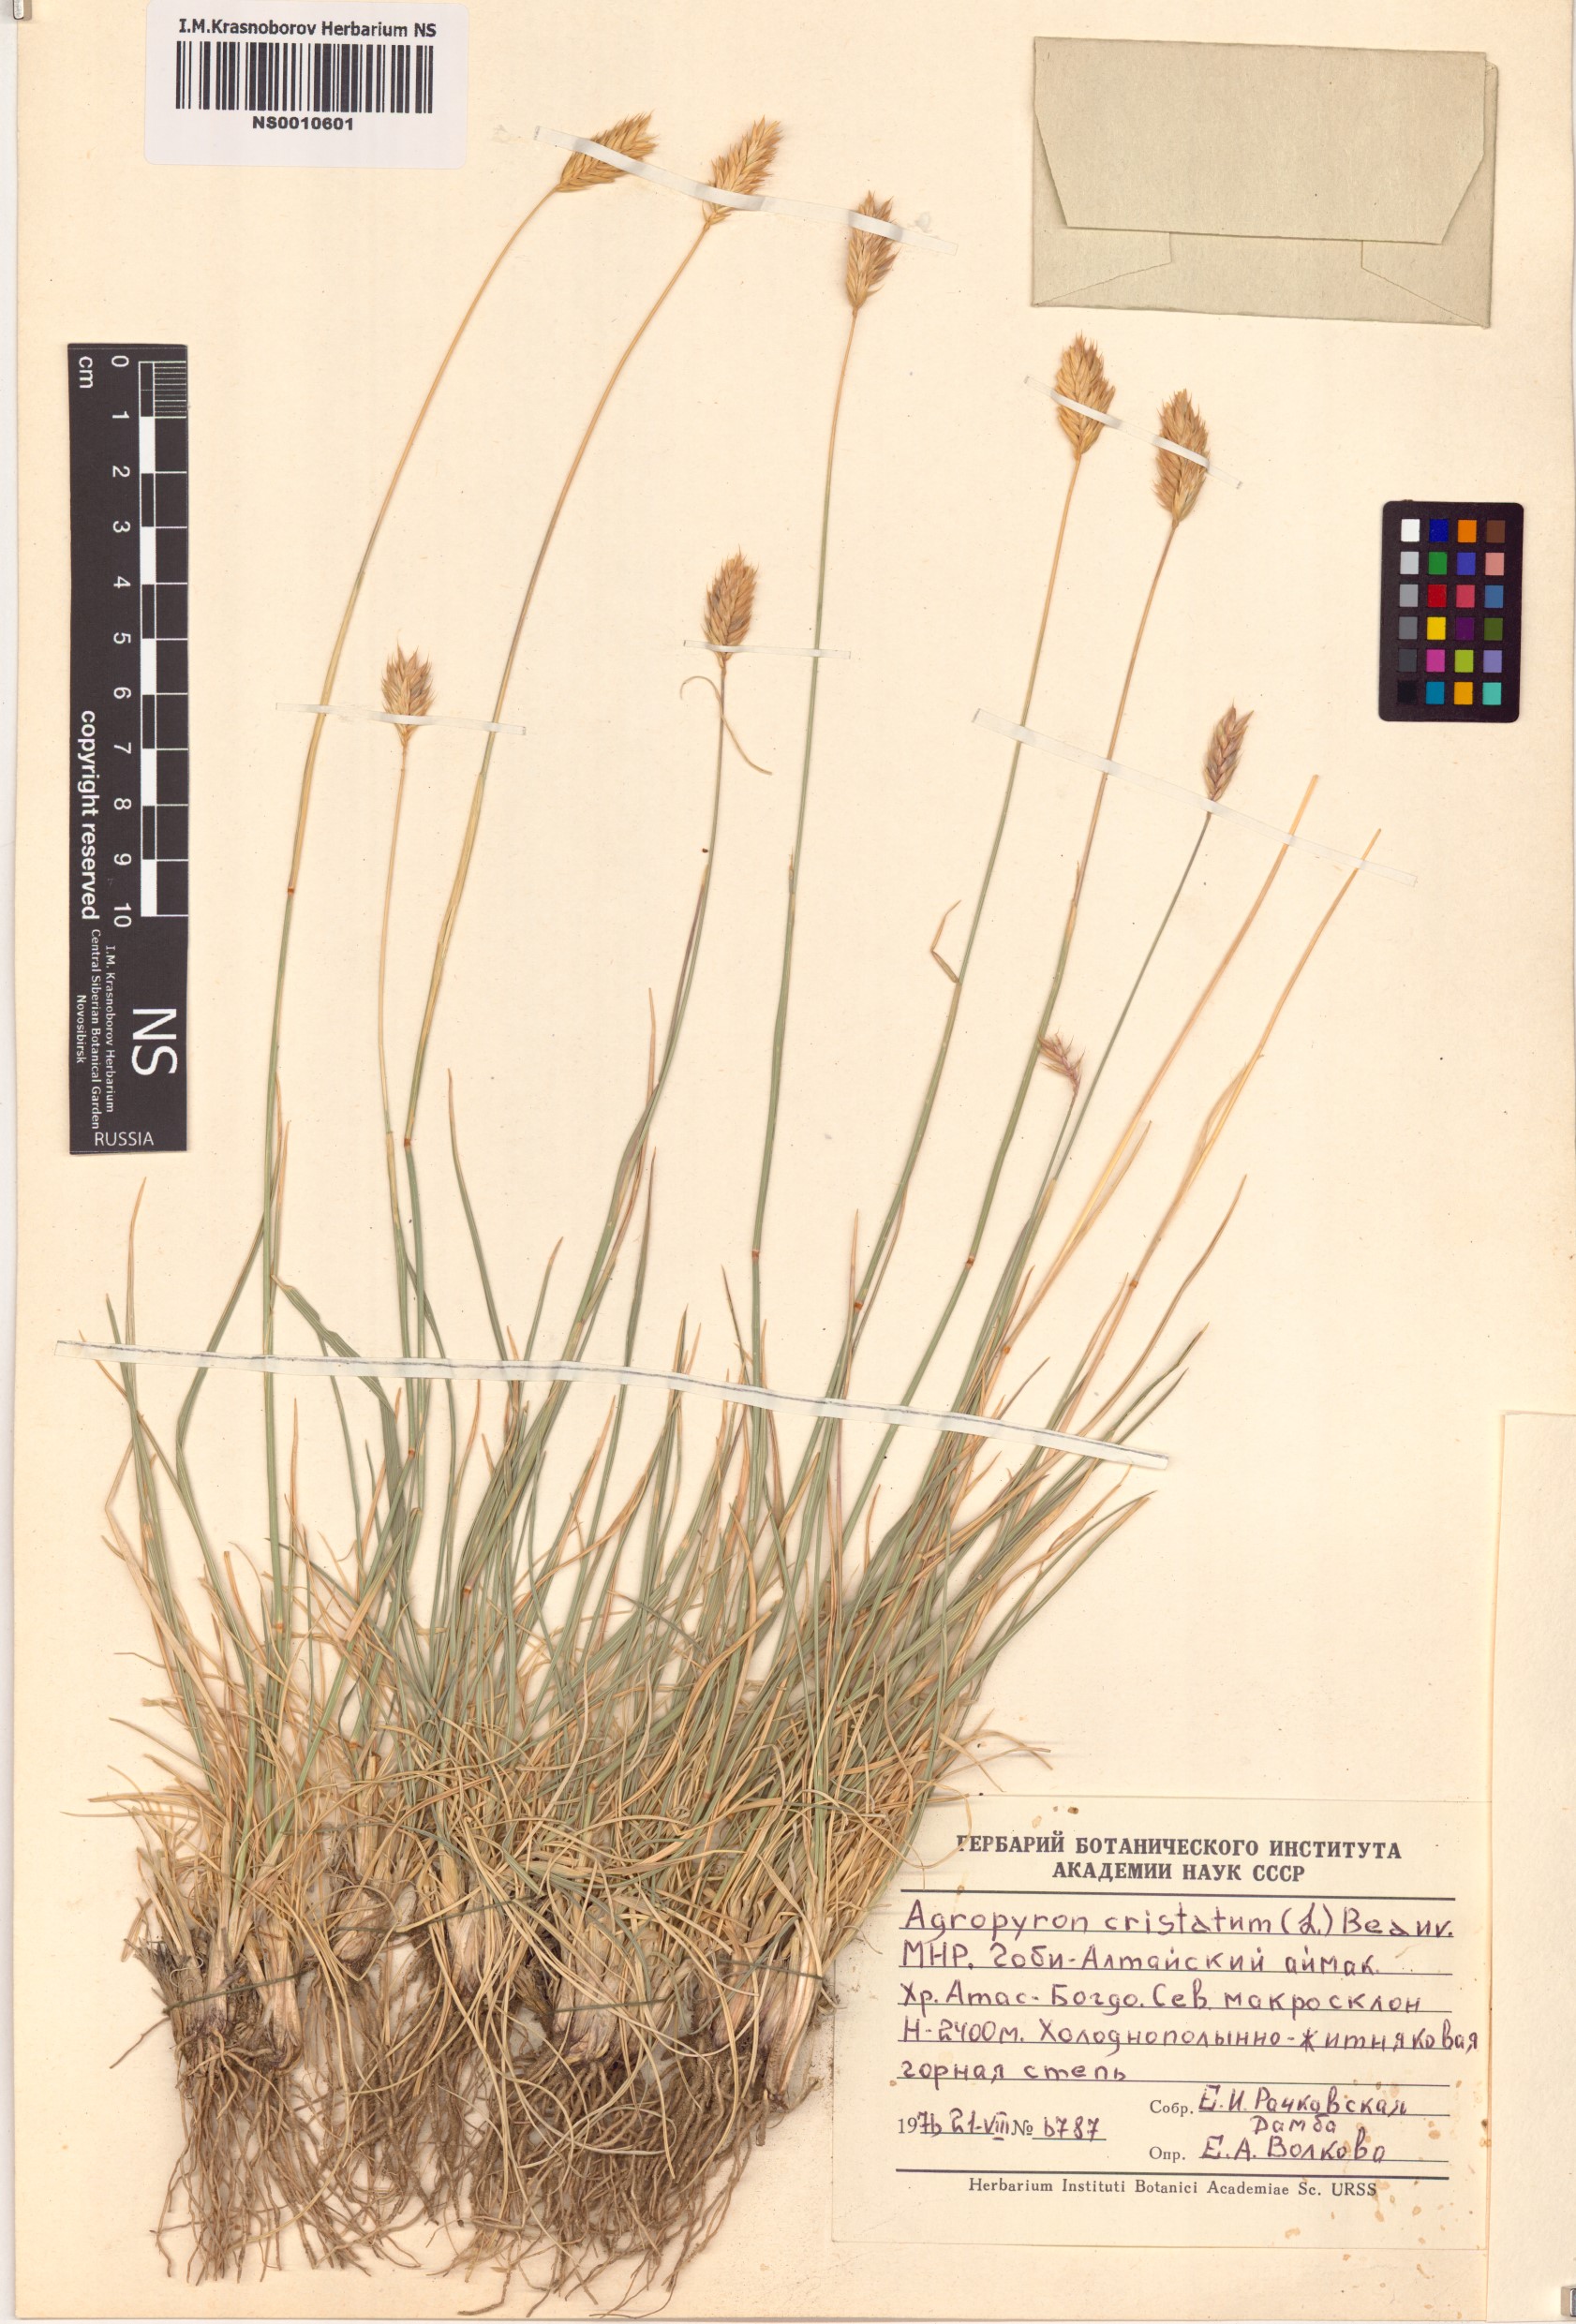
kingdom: Plantae
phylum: Tracheophyta
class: Liliopsida
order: Poales
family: Poaceae
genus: Agropyron
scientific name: Agropyron cristatum
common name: Crested wheatgrass
